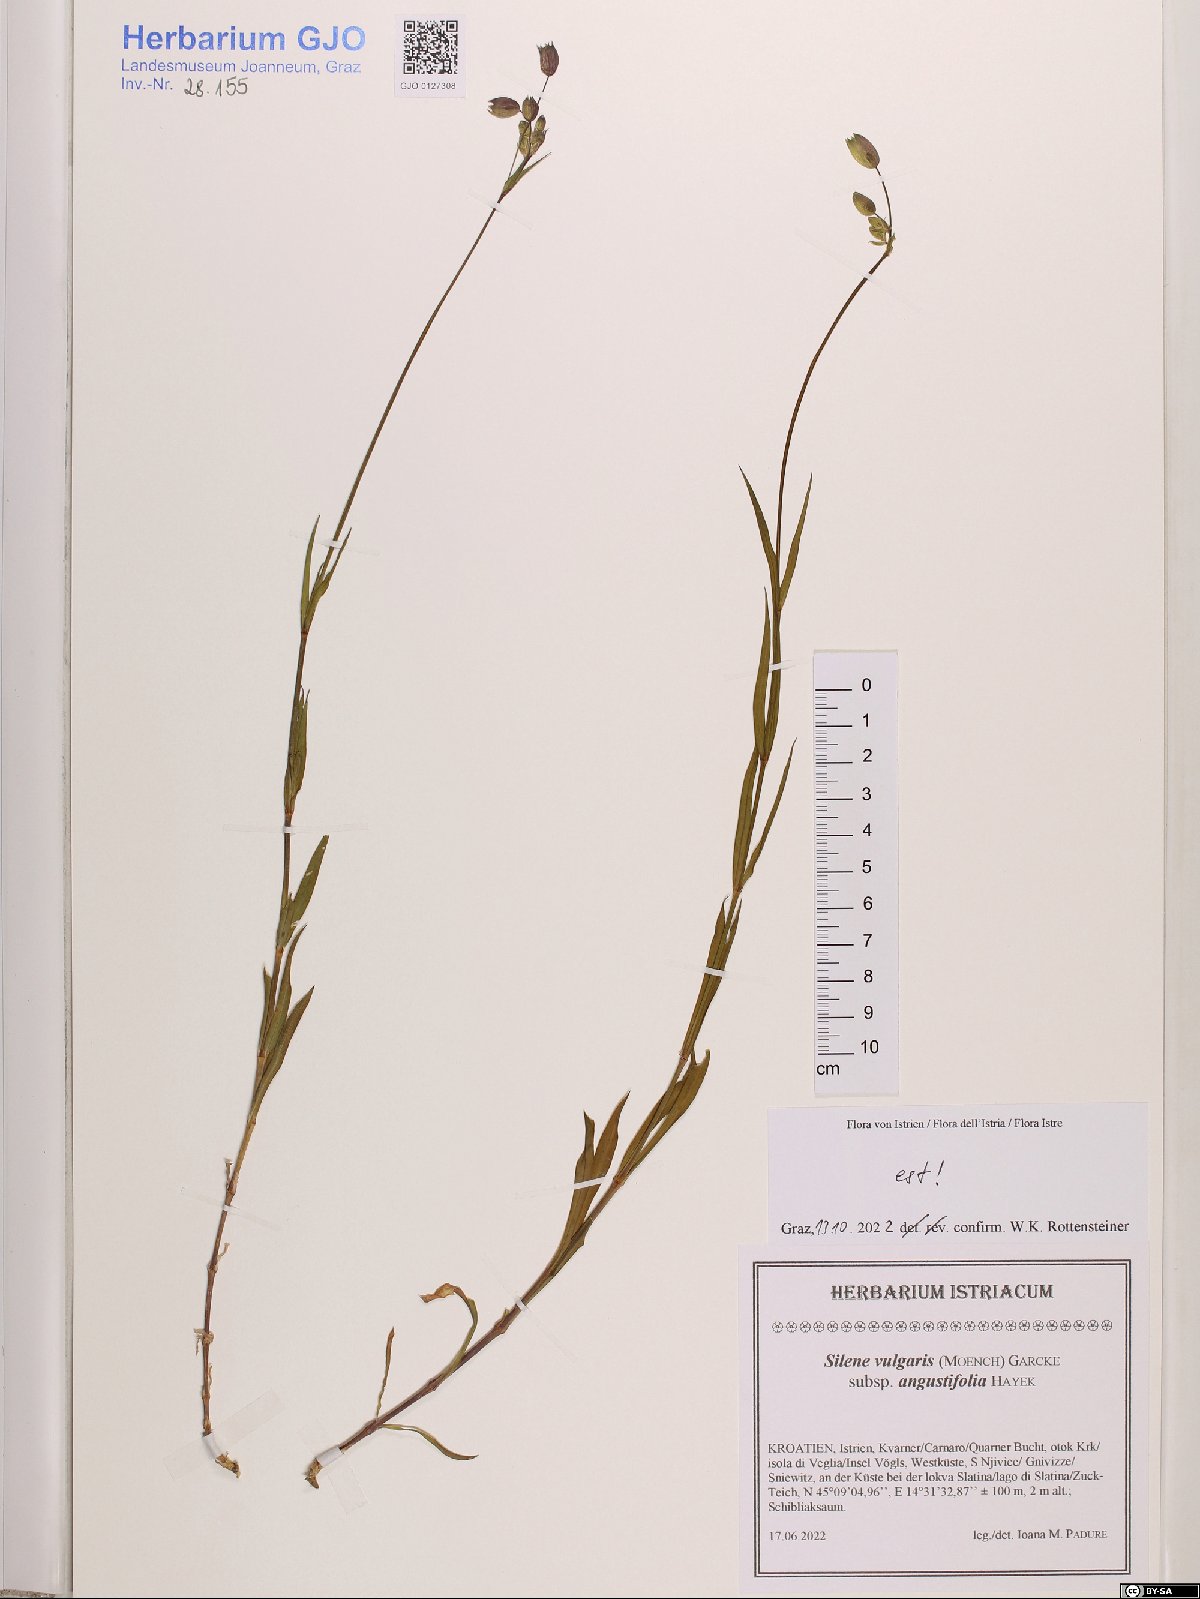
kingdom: Plantae
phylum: Tracheophyta
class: Magnoliopsida
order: Caryophyllales
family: Caryophyllaceae
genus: Silene
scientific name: Silene vulgaris
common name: Bladder campion
